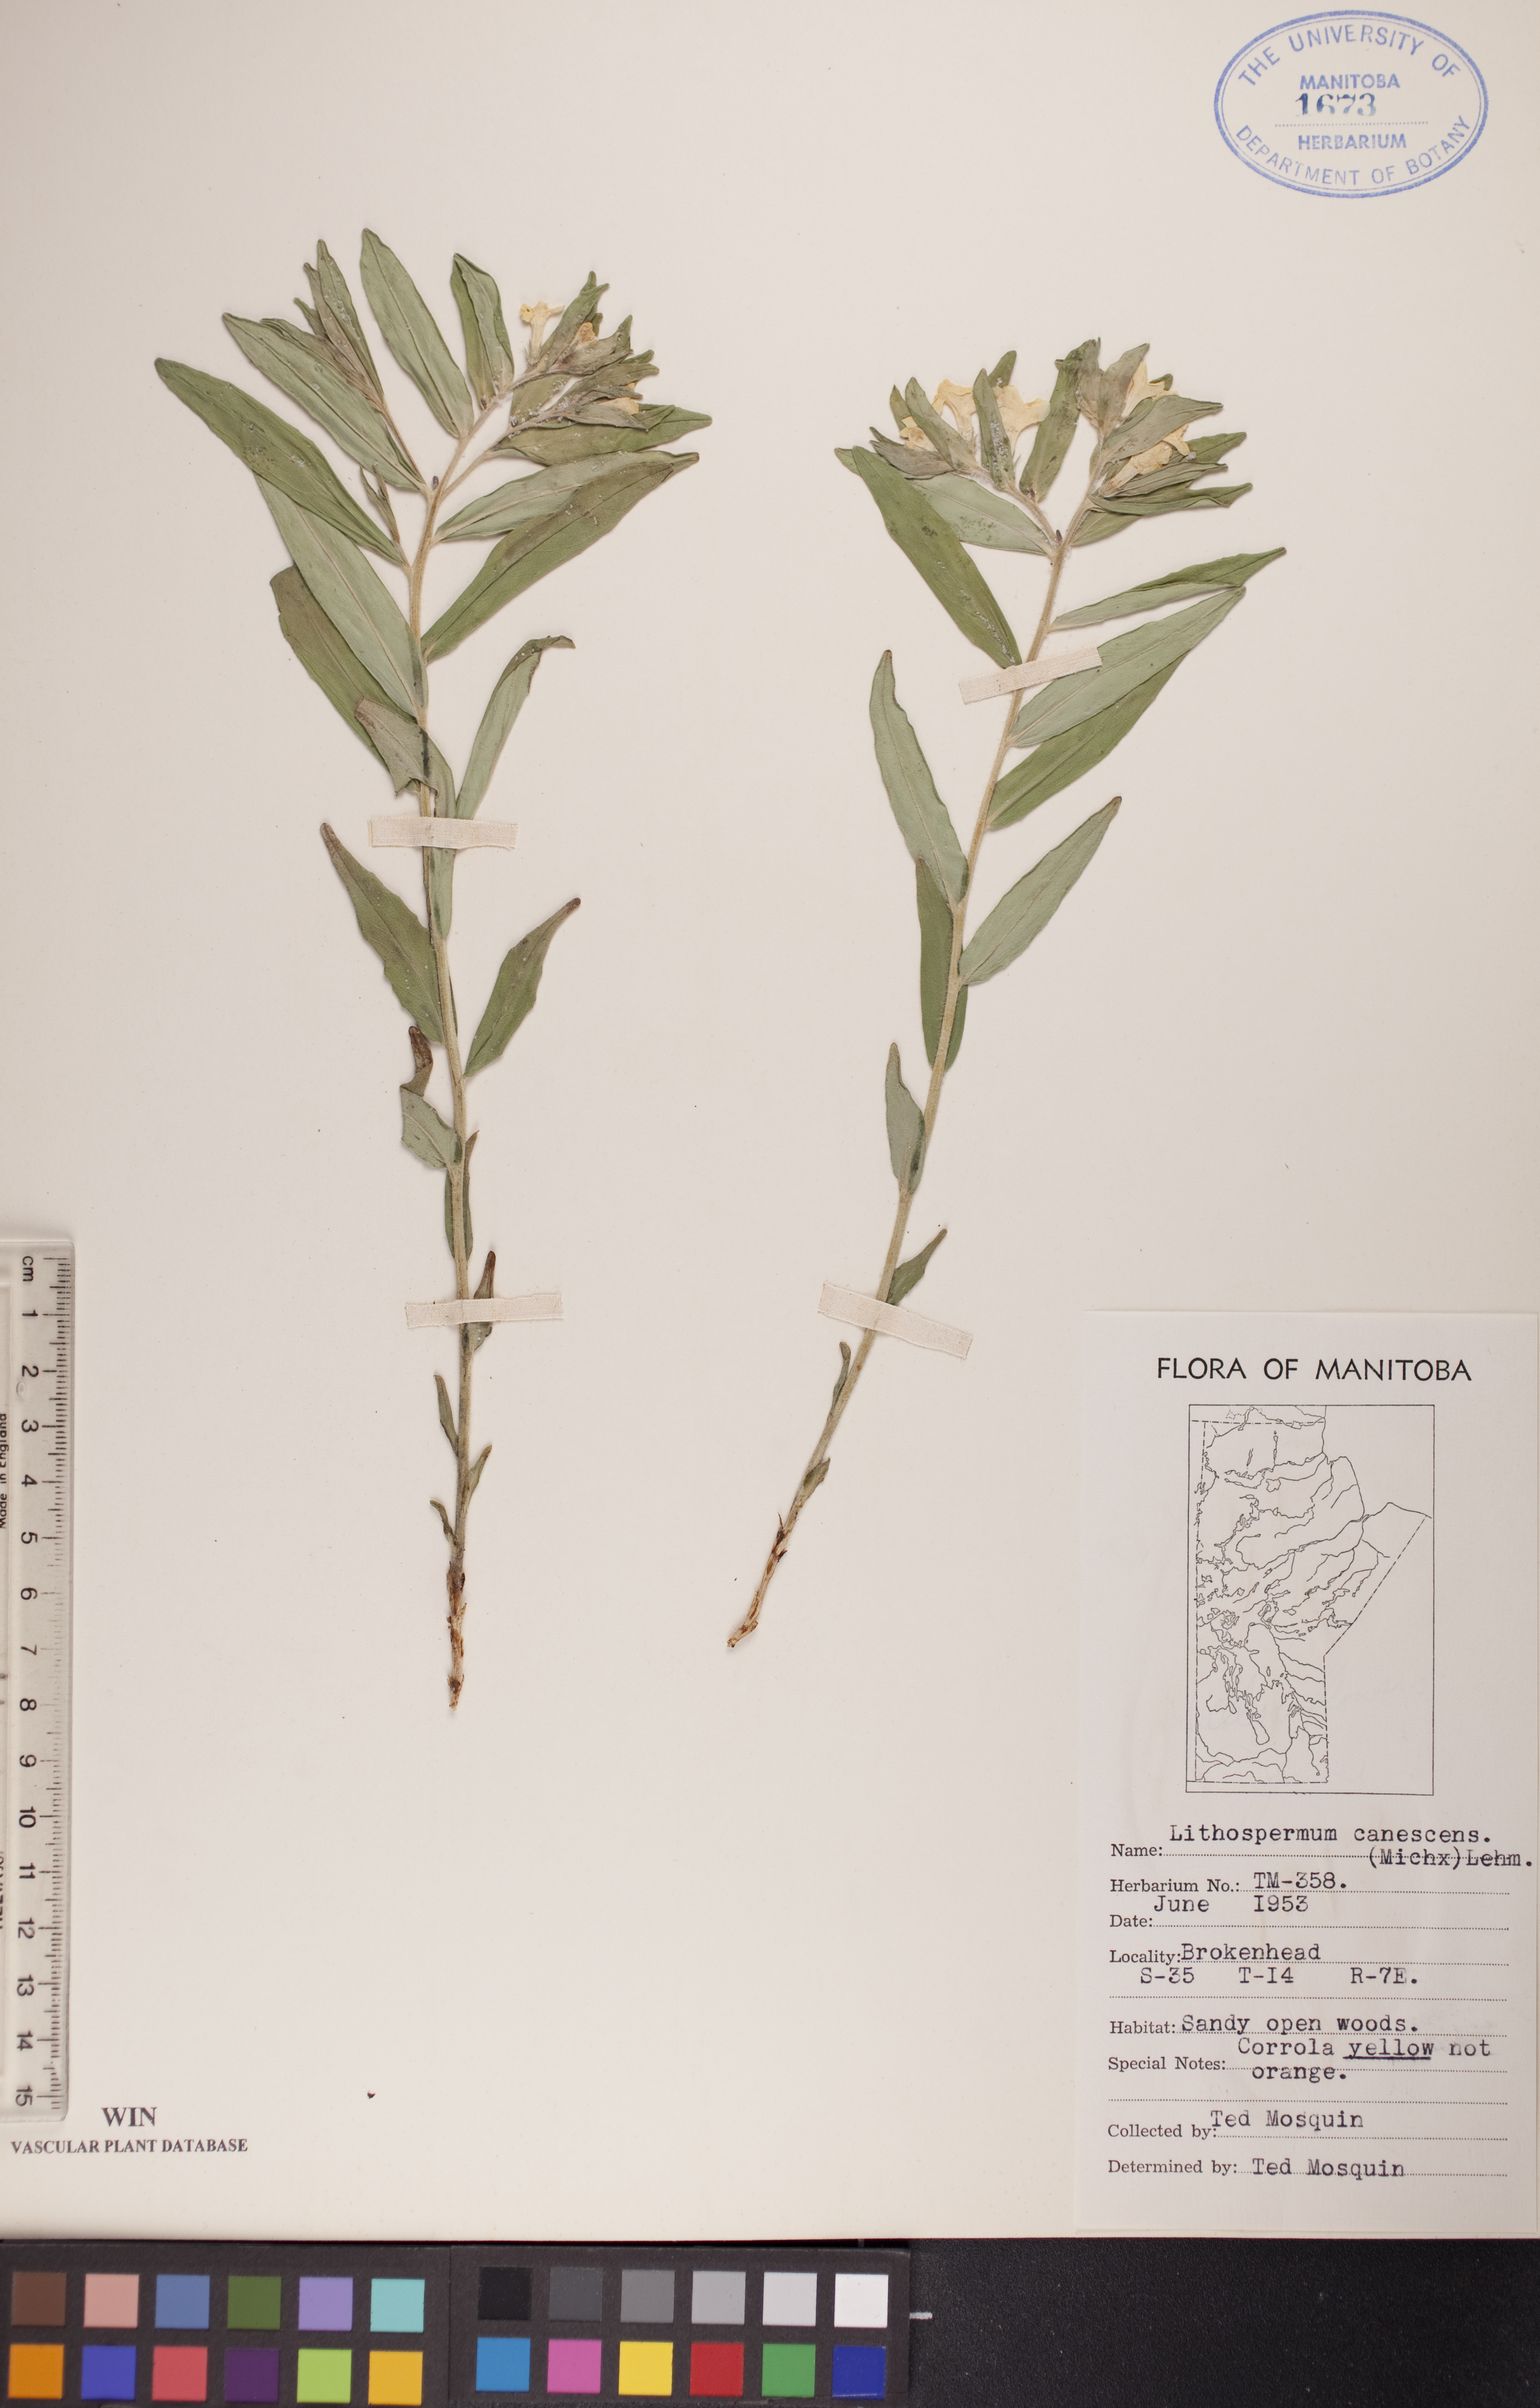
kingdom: Plantae
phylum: Tracheophyta
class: Magnoliopsida
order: Boraginales
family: Boraginaceae
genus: Lithospermum
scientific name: Lithospermum canescens
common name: Hoary puccoon
